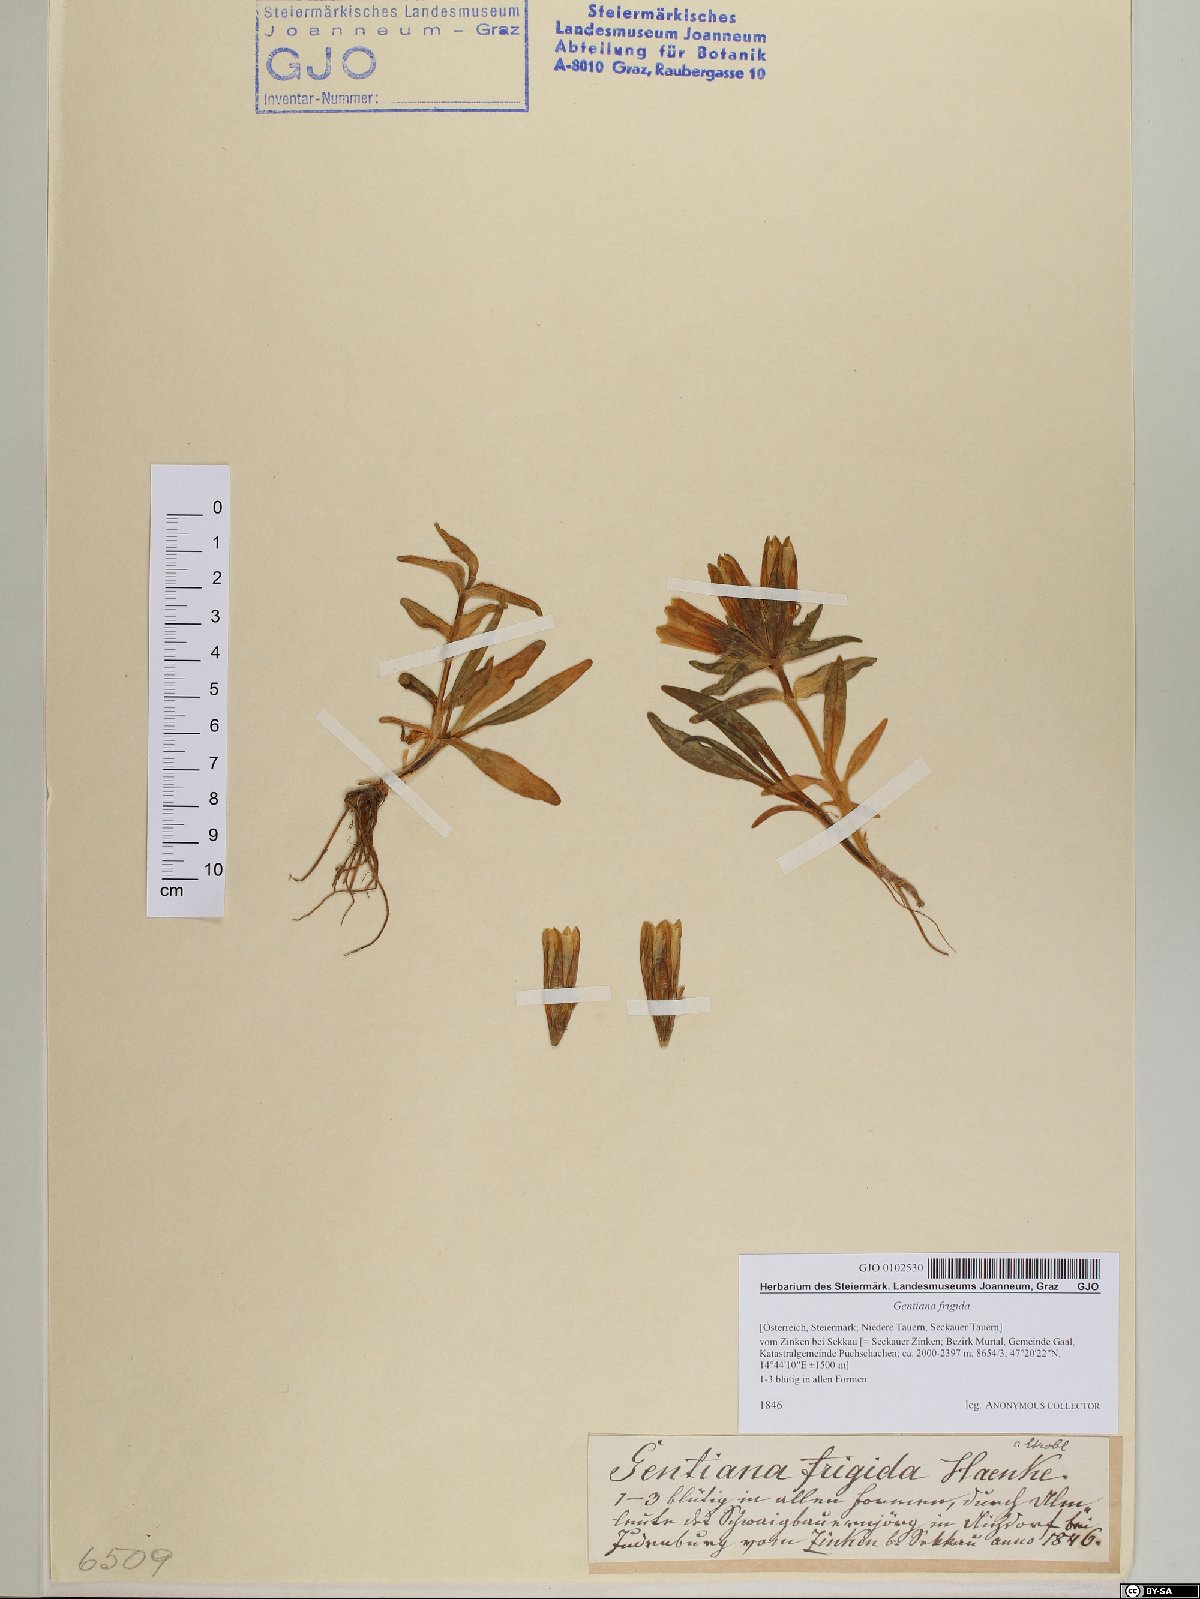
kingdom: Plantae
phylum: Tracheophyta
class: Magnoliopsida
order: Gentianales
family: Gentianaceae
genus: Gentiana
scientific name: Gentiana frigida
